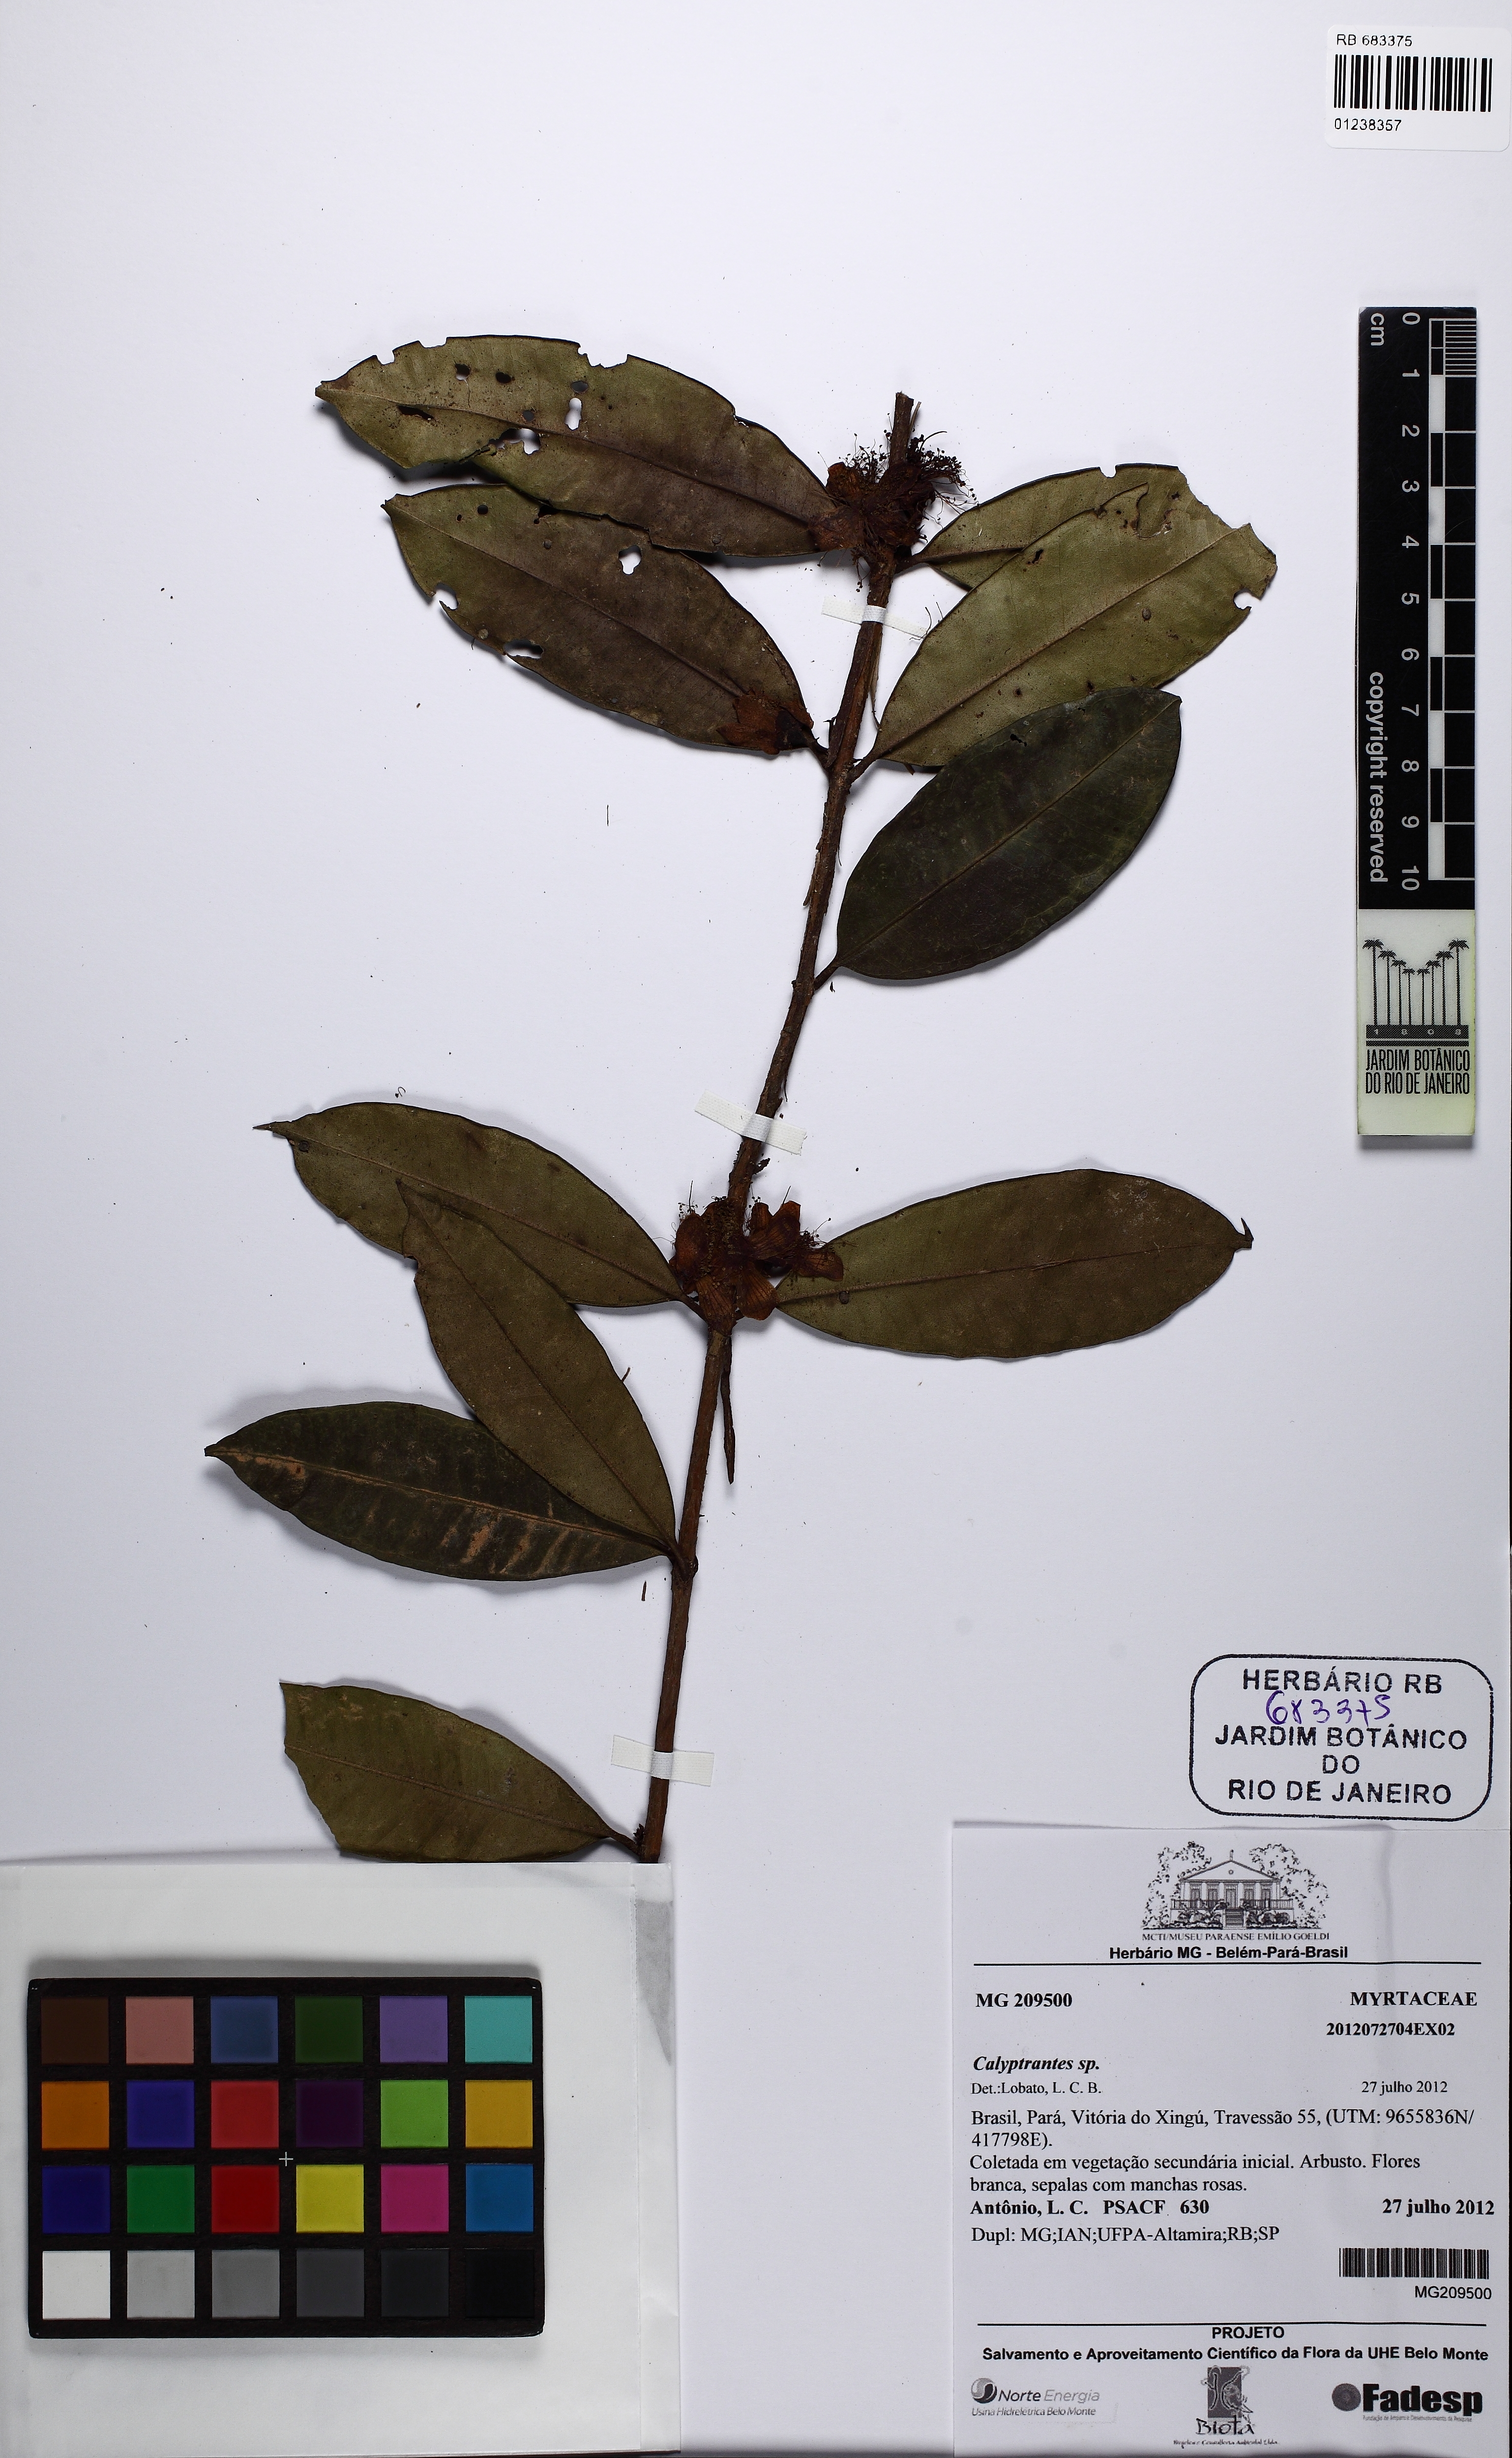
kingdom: Plantae
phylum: Tracheophyta
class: Magnoliopsida
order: Myrtales
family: Myrtaceae
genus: Eugenia
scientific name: Eugenia
